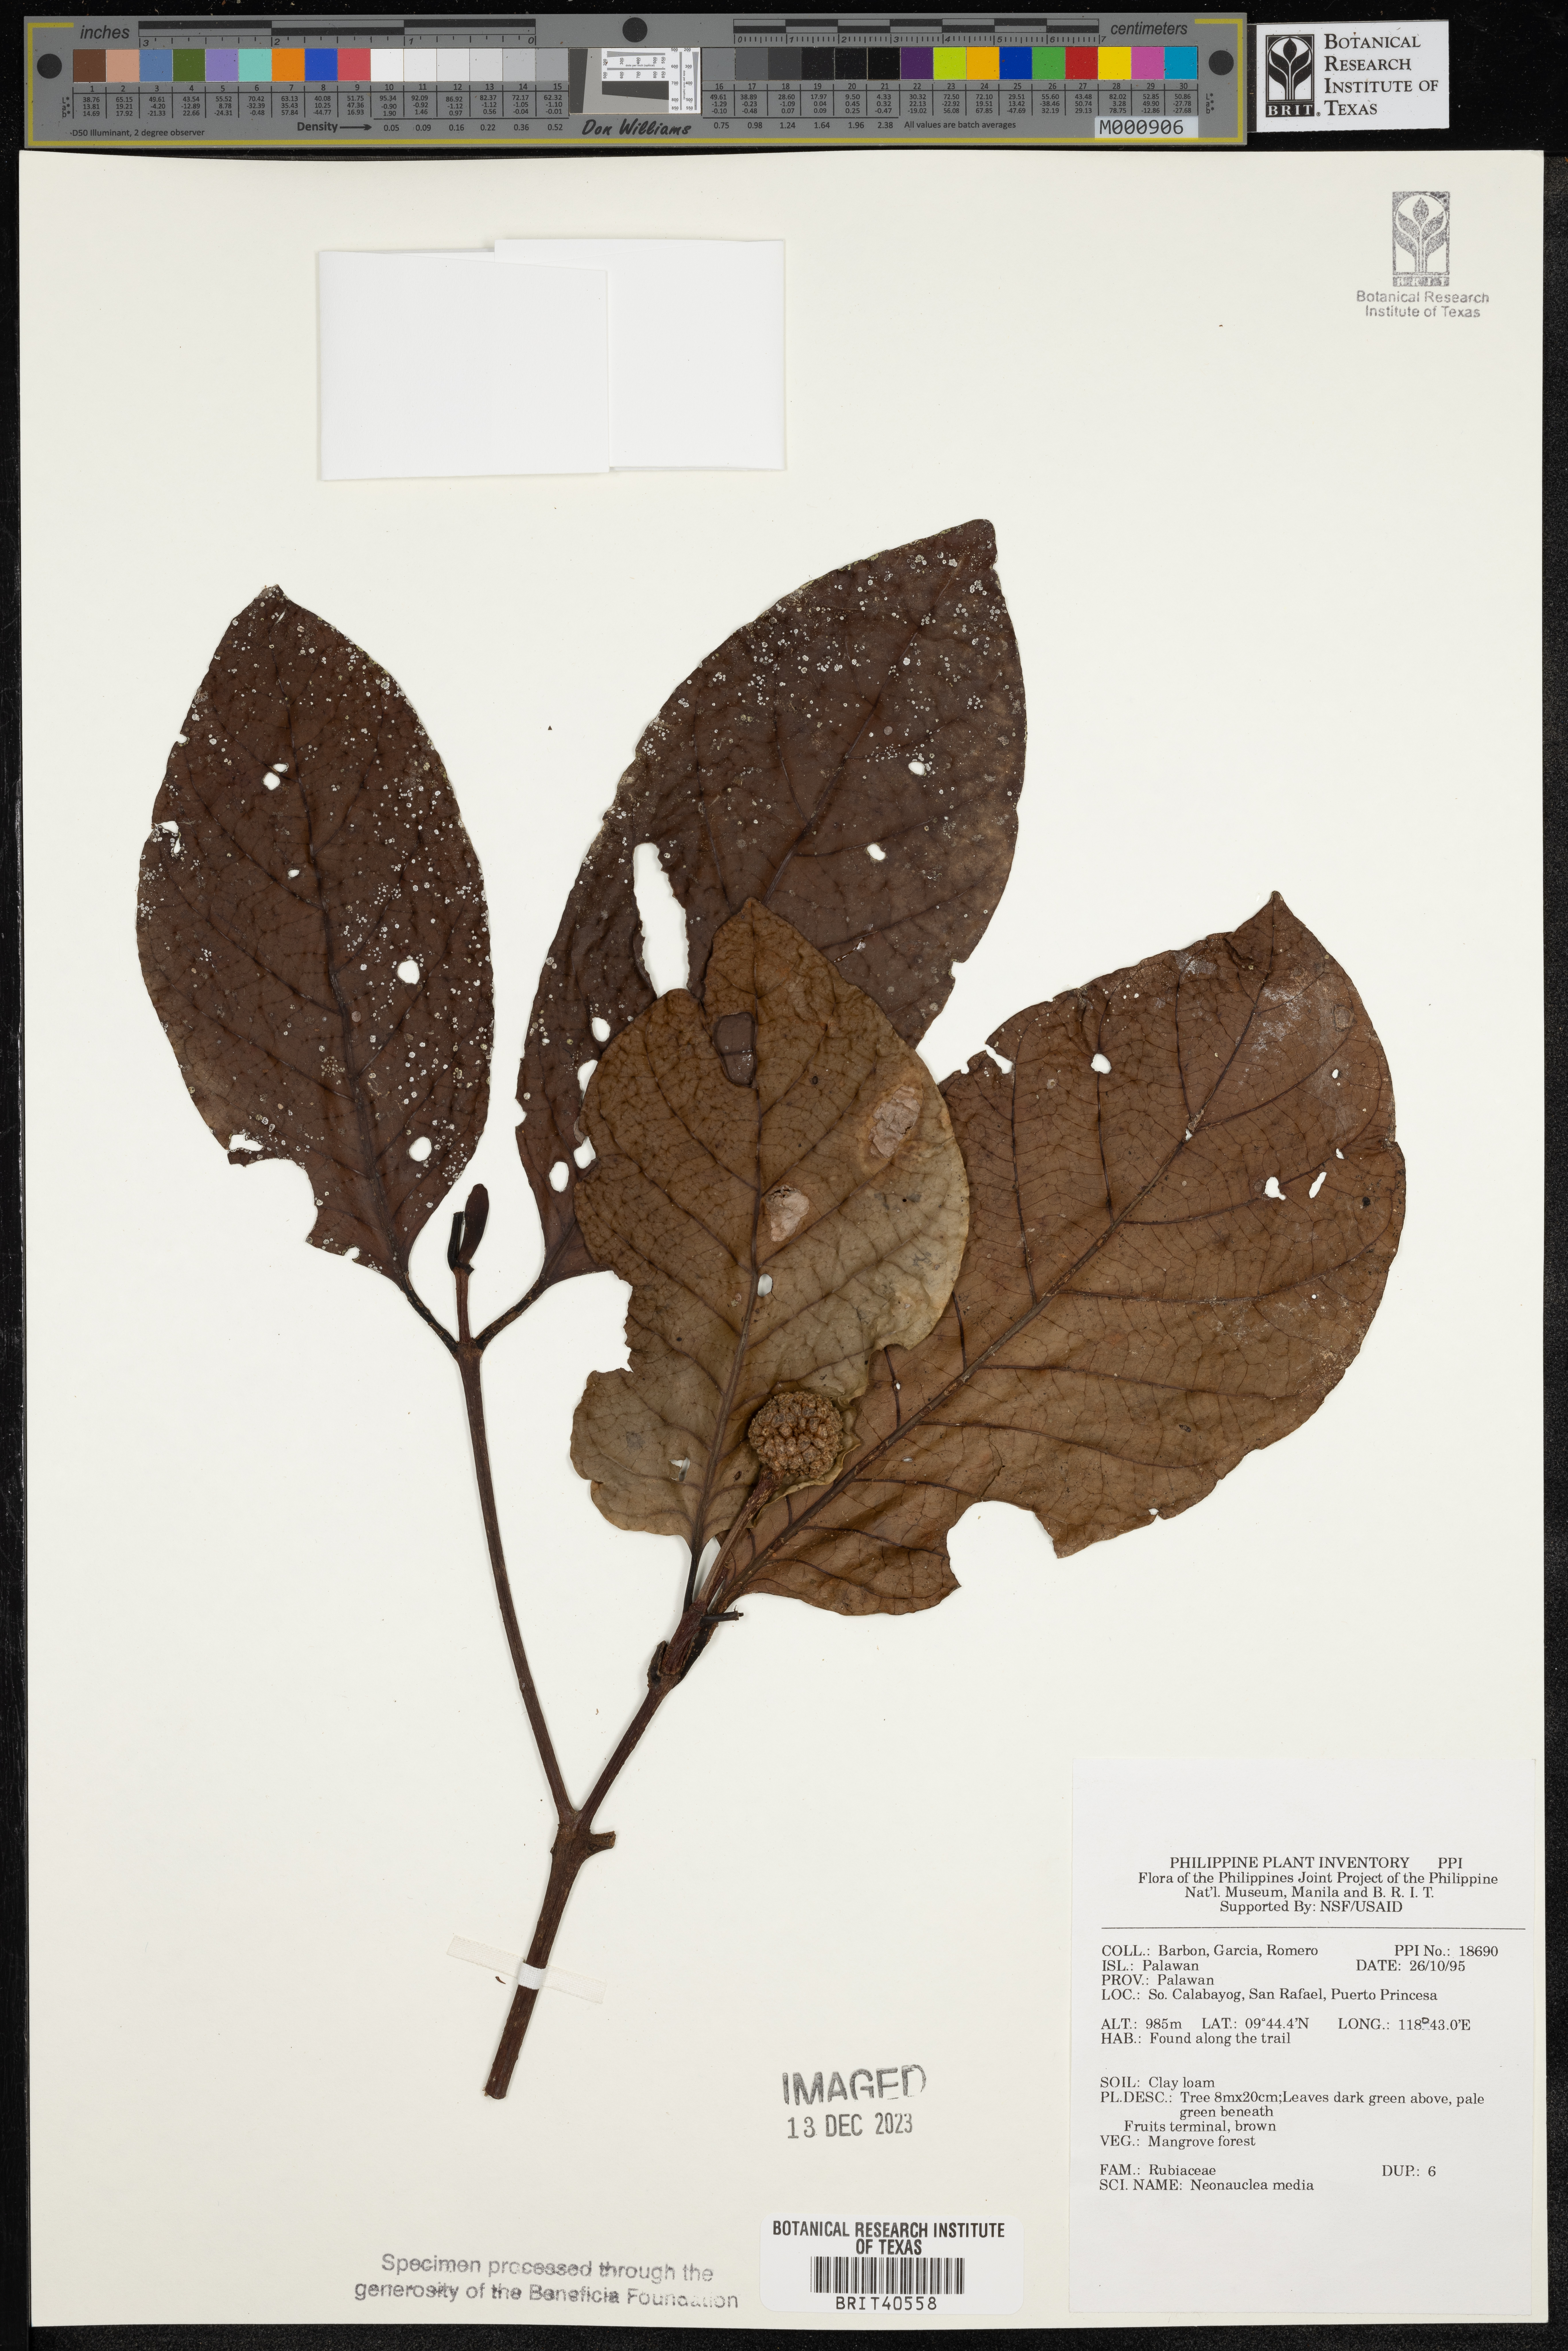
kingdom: Plantae
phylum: Tracheophyta
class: Magnoliopsida
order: Gentianales
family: Rubiaceae
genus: Neonauclea
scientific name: Neonauclea media
